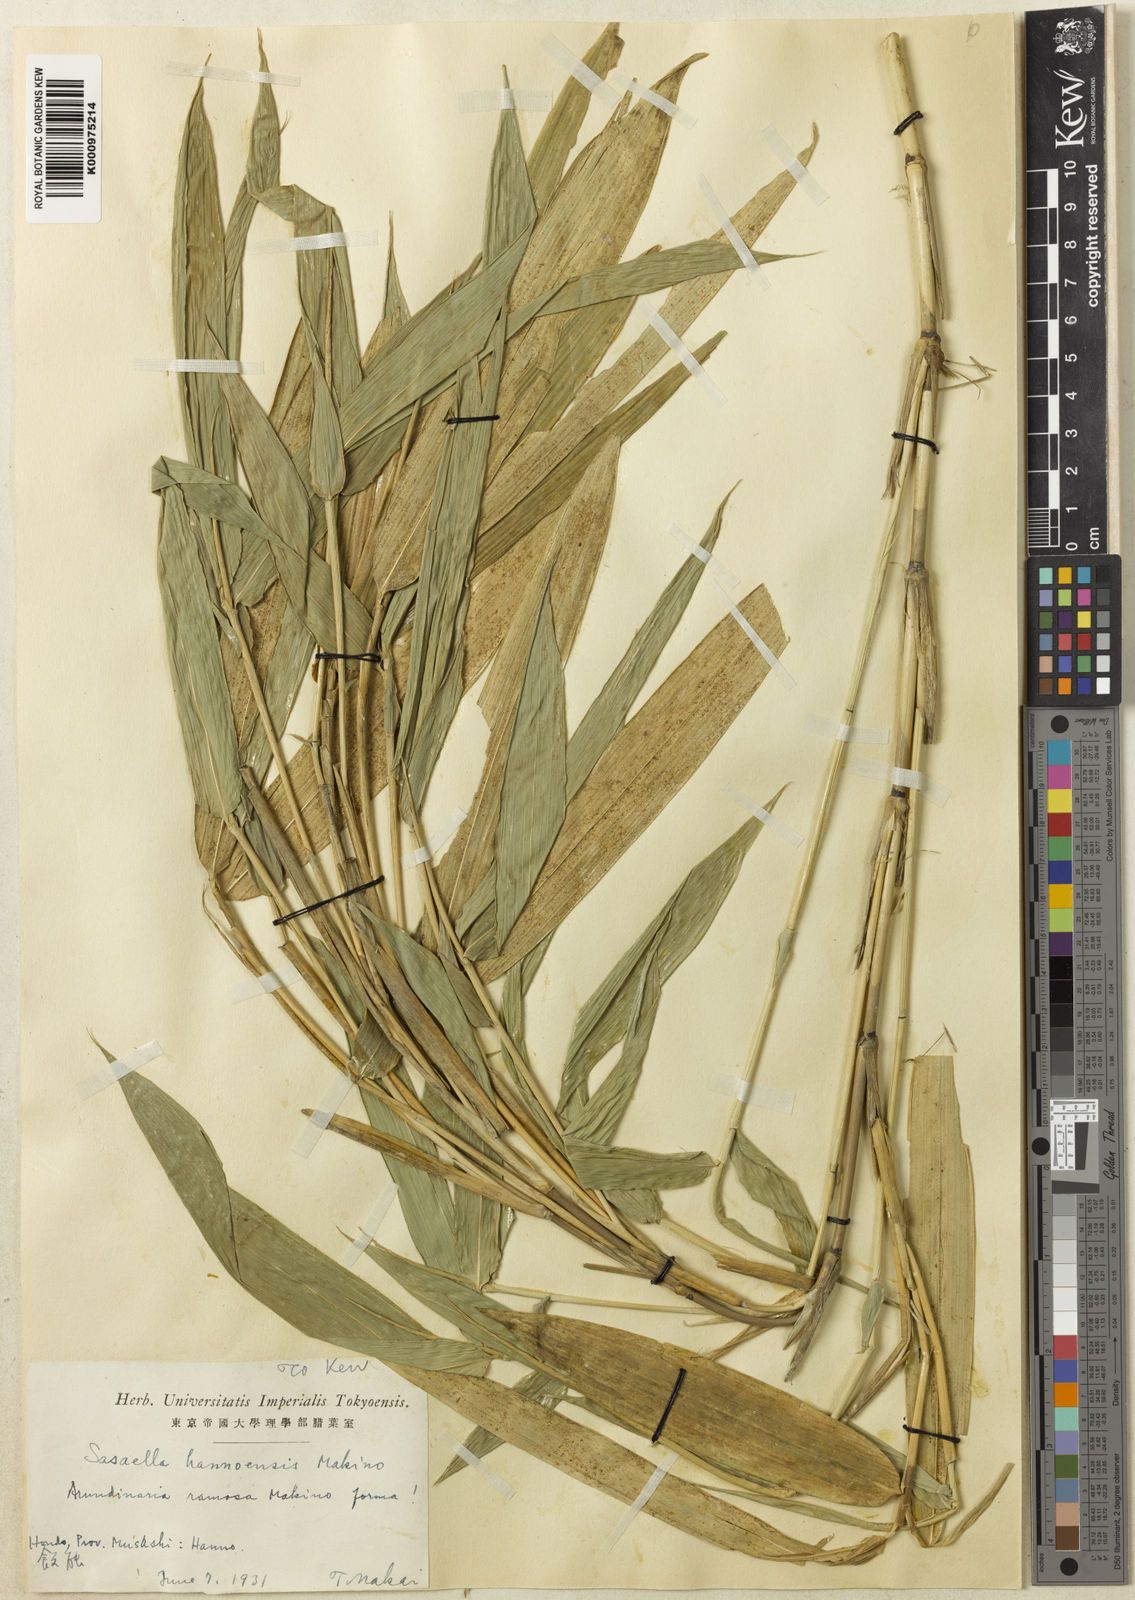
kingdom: Plantae
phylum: Tracheophyta
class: Liliopsida
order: Poales
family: Poaceae
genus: Sasaella
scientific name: Sasaella ramosa
